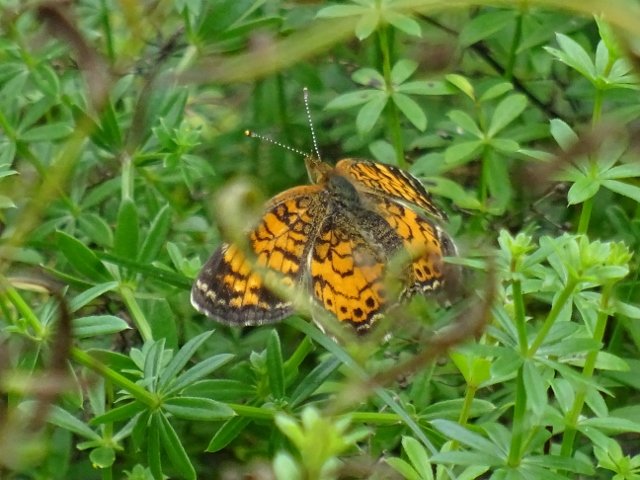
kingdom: Animalia
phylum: Arthropoda
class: Insecta
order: Lepidoptera
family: Nymphalidae
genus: Phyciodes
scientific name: Phyciodes tharos
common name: Northern Crescent
